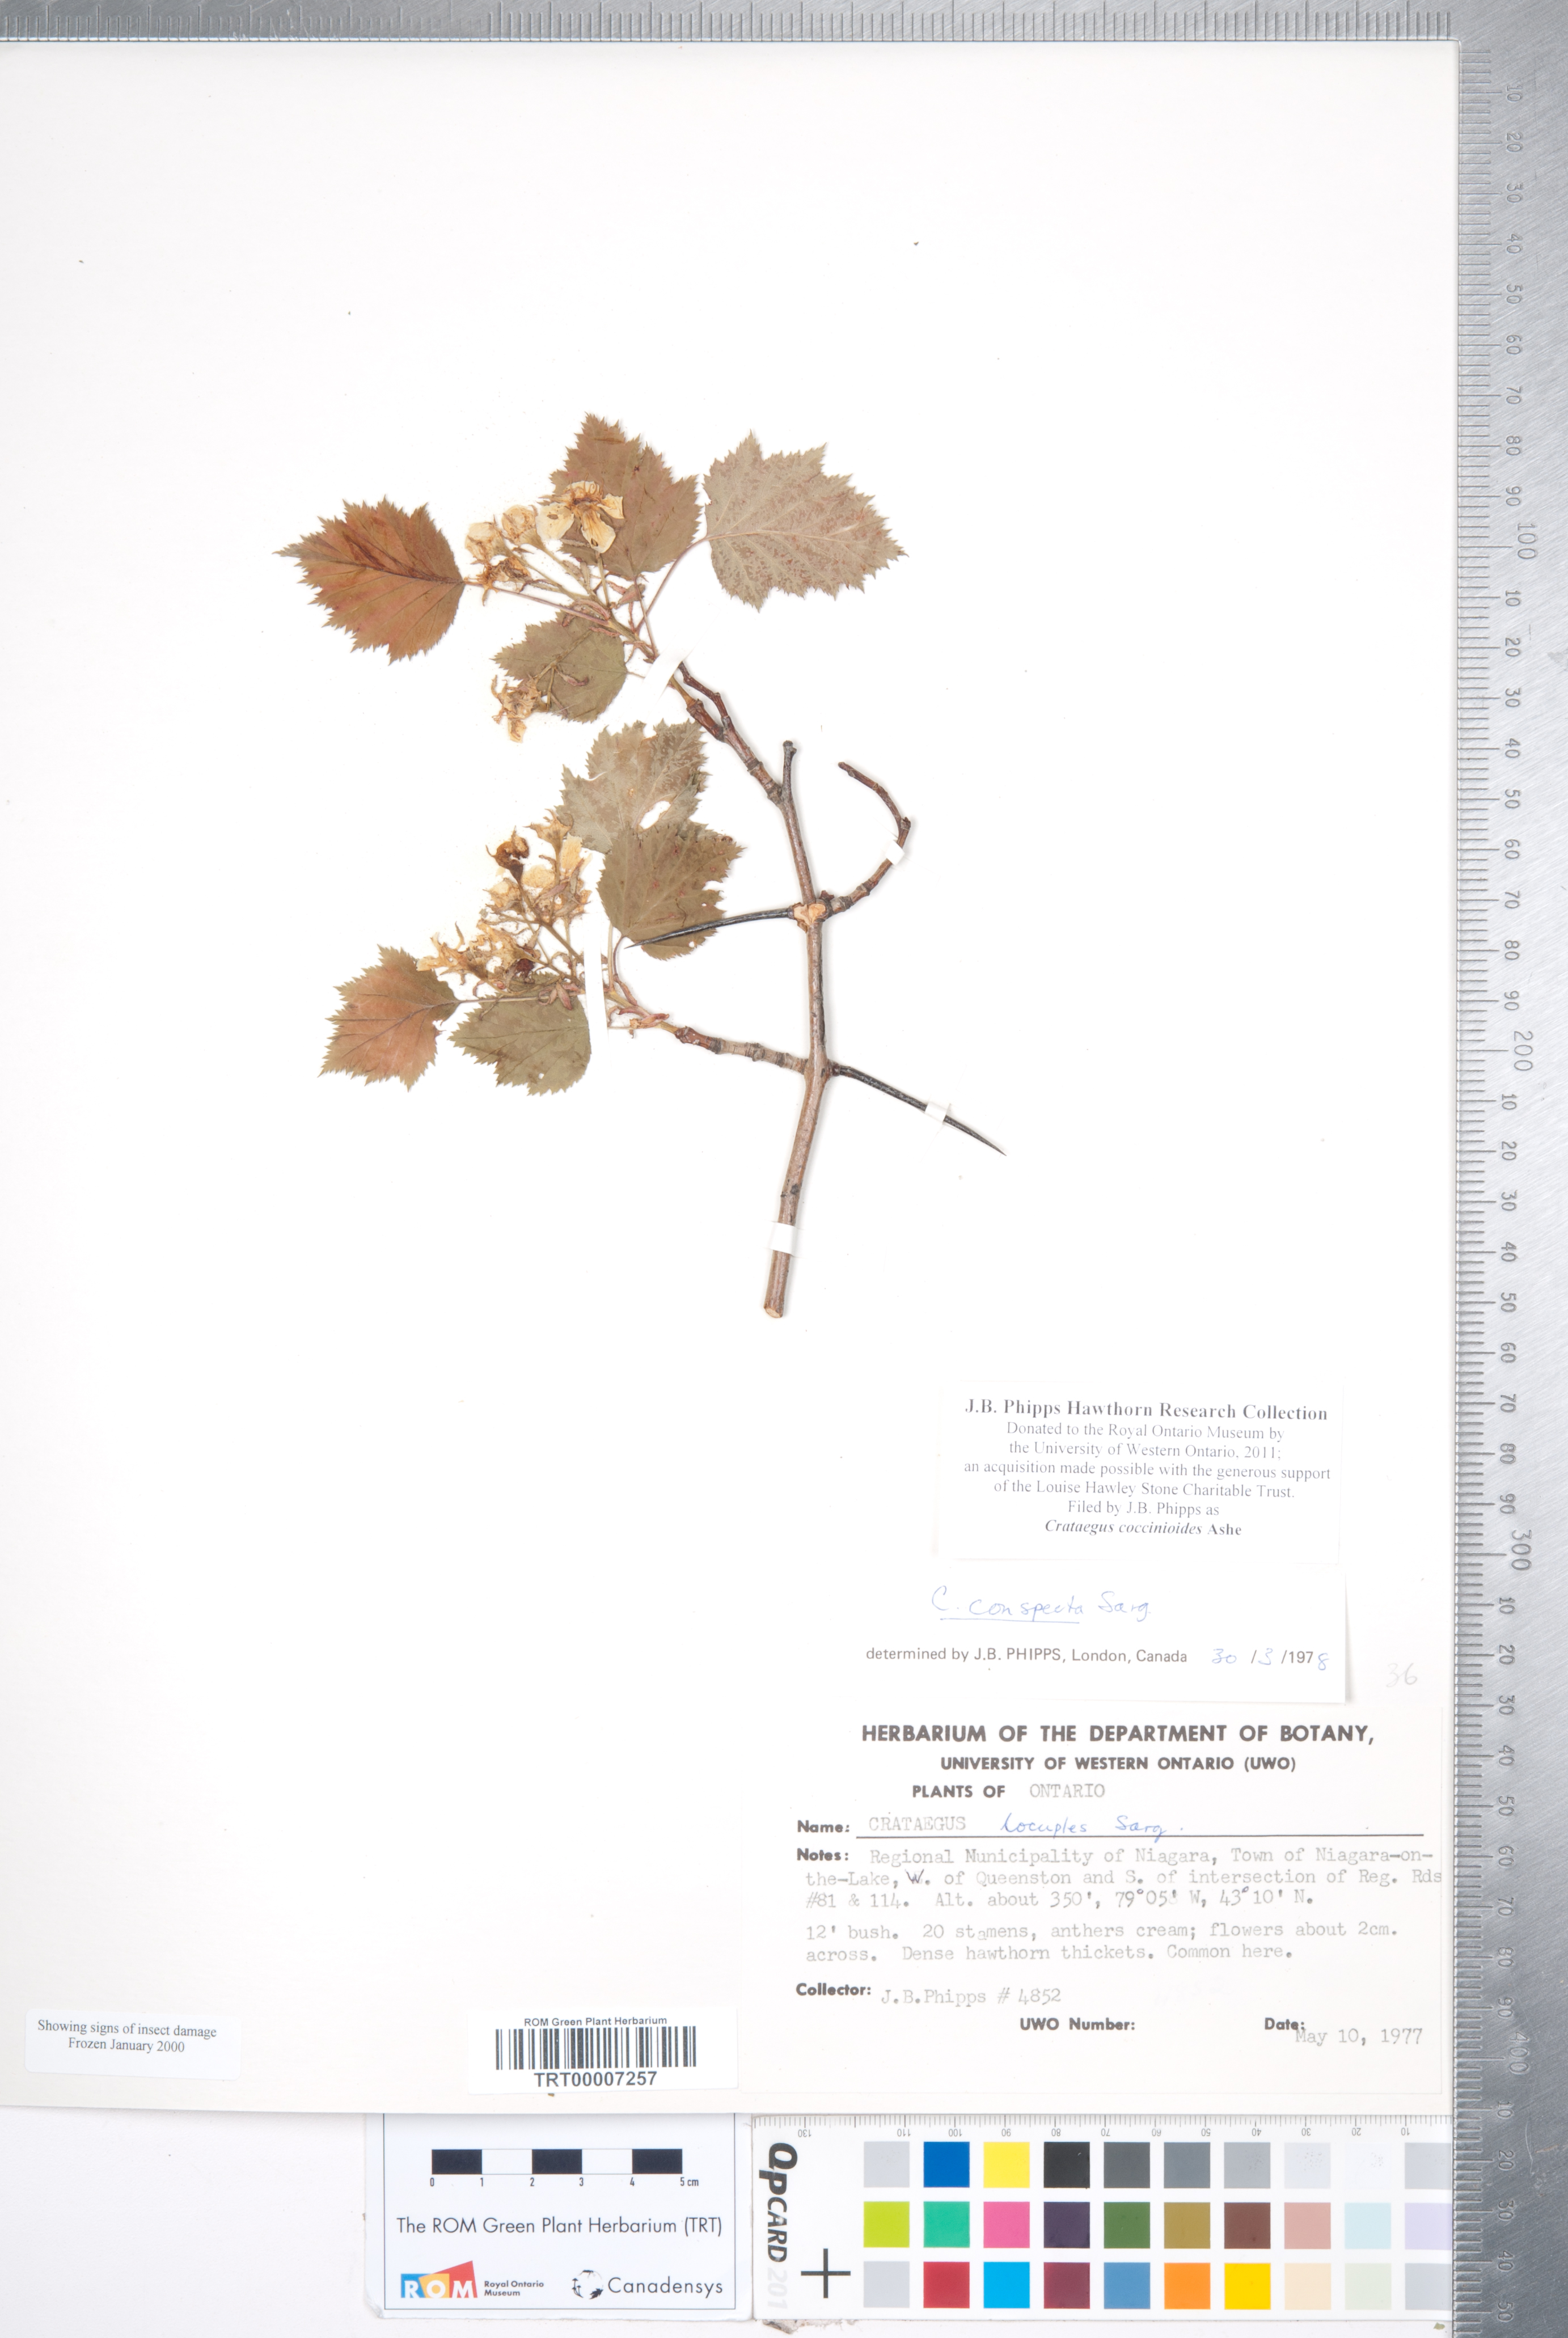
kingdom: Plantae
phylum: Tracheophyta
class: Magnoliopsida
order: Rosales
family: Rosaceae
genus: Crataegus
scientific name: Crataegus coccinioides
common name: Large-flowered cockspurthorn
